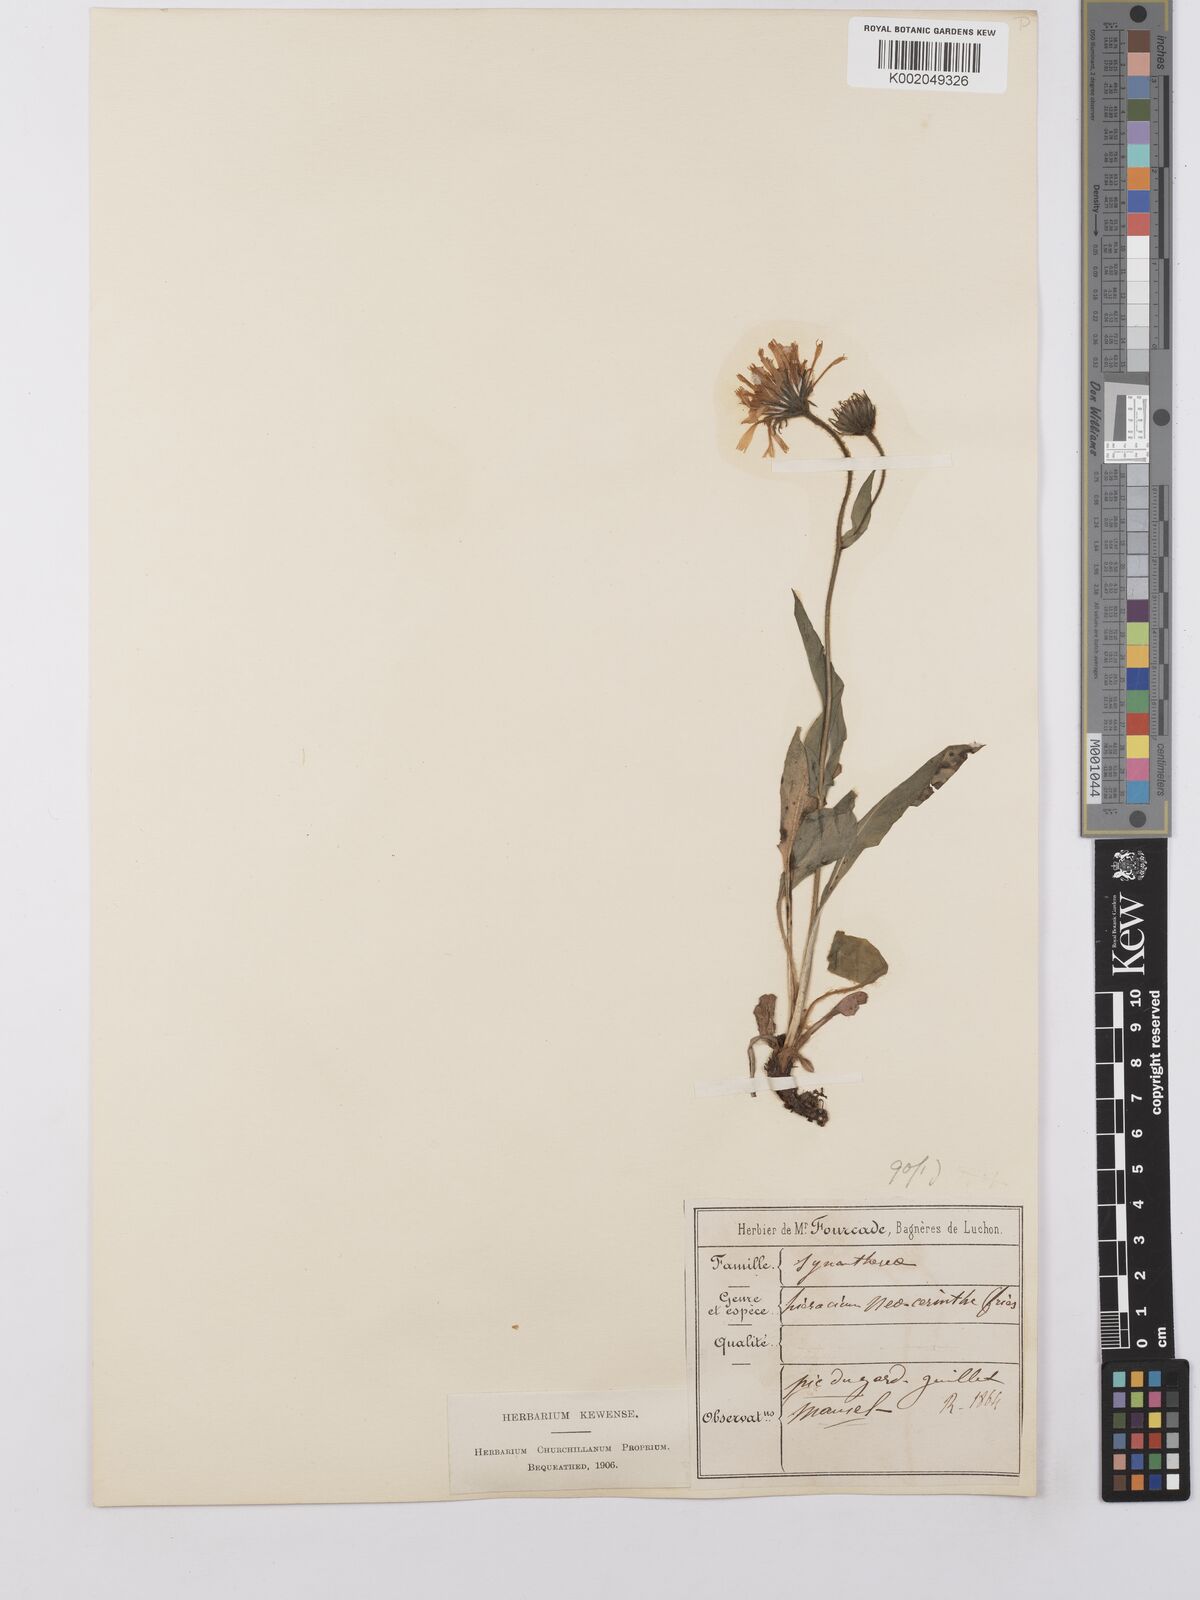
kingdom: Plantae
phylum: Tracheophyta
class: Magnoliopsida
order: Asterales
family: Asteraceae
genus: Hieracium
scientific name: Hieracium cerinthoides
